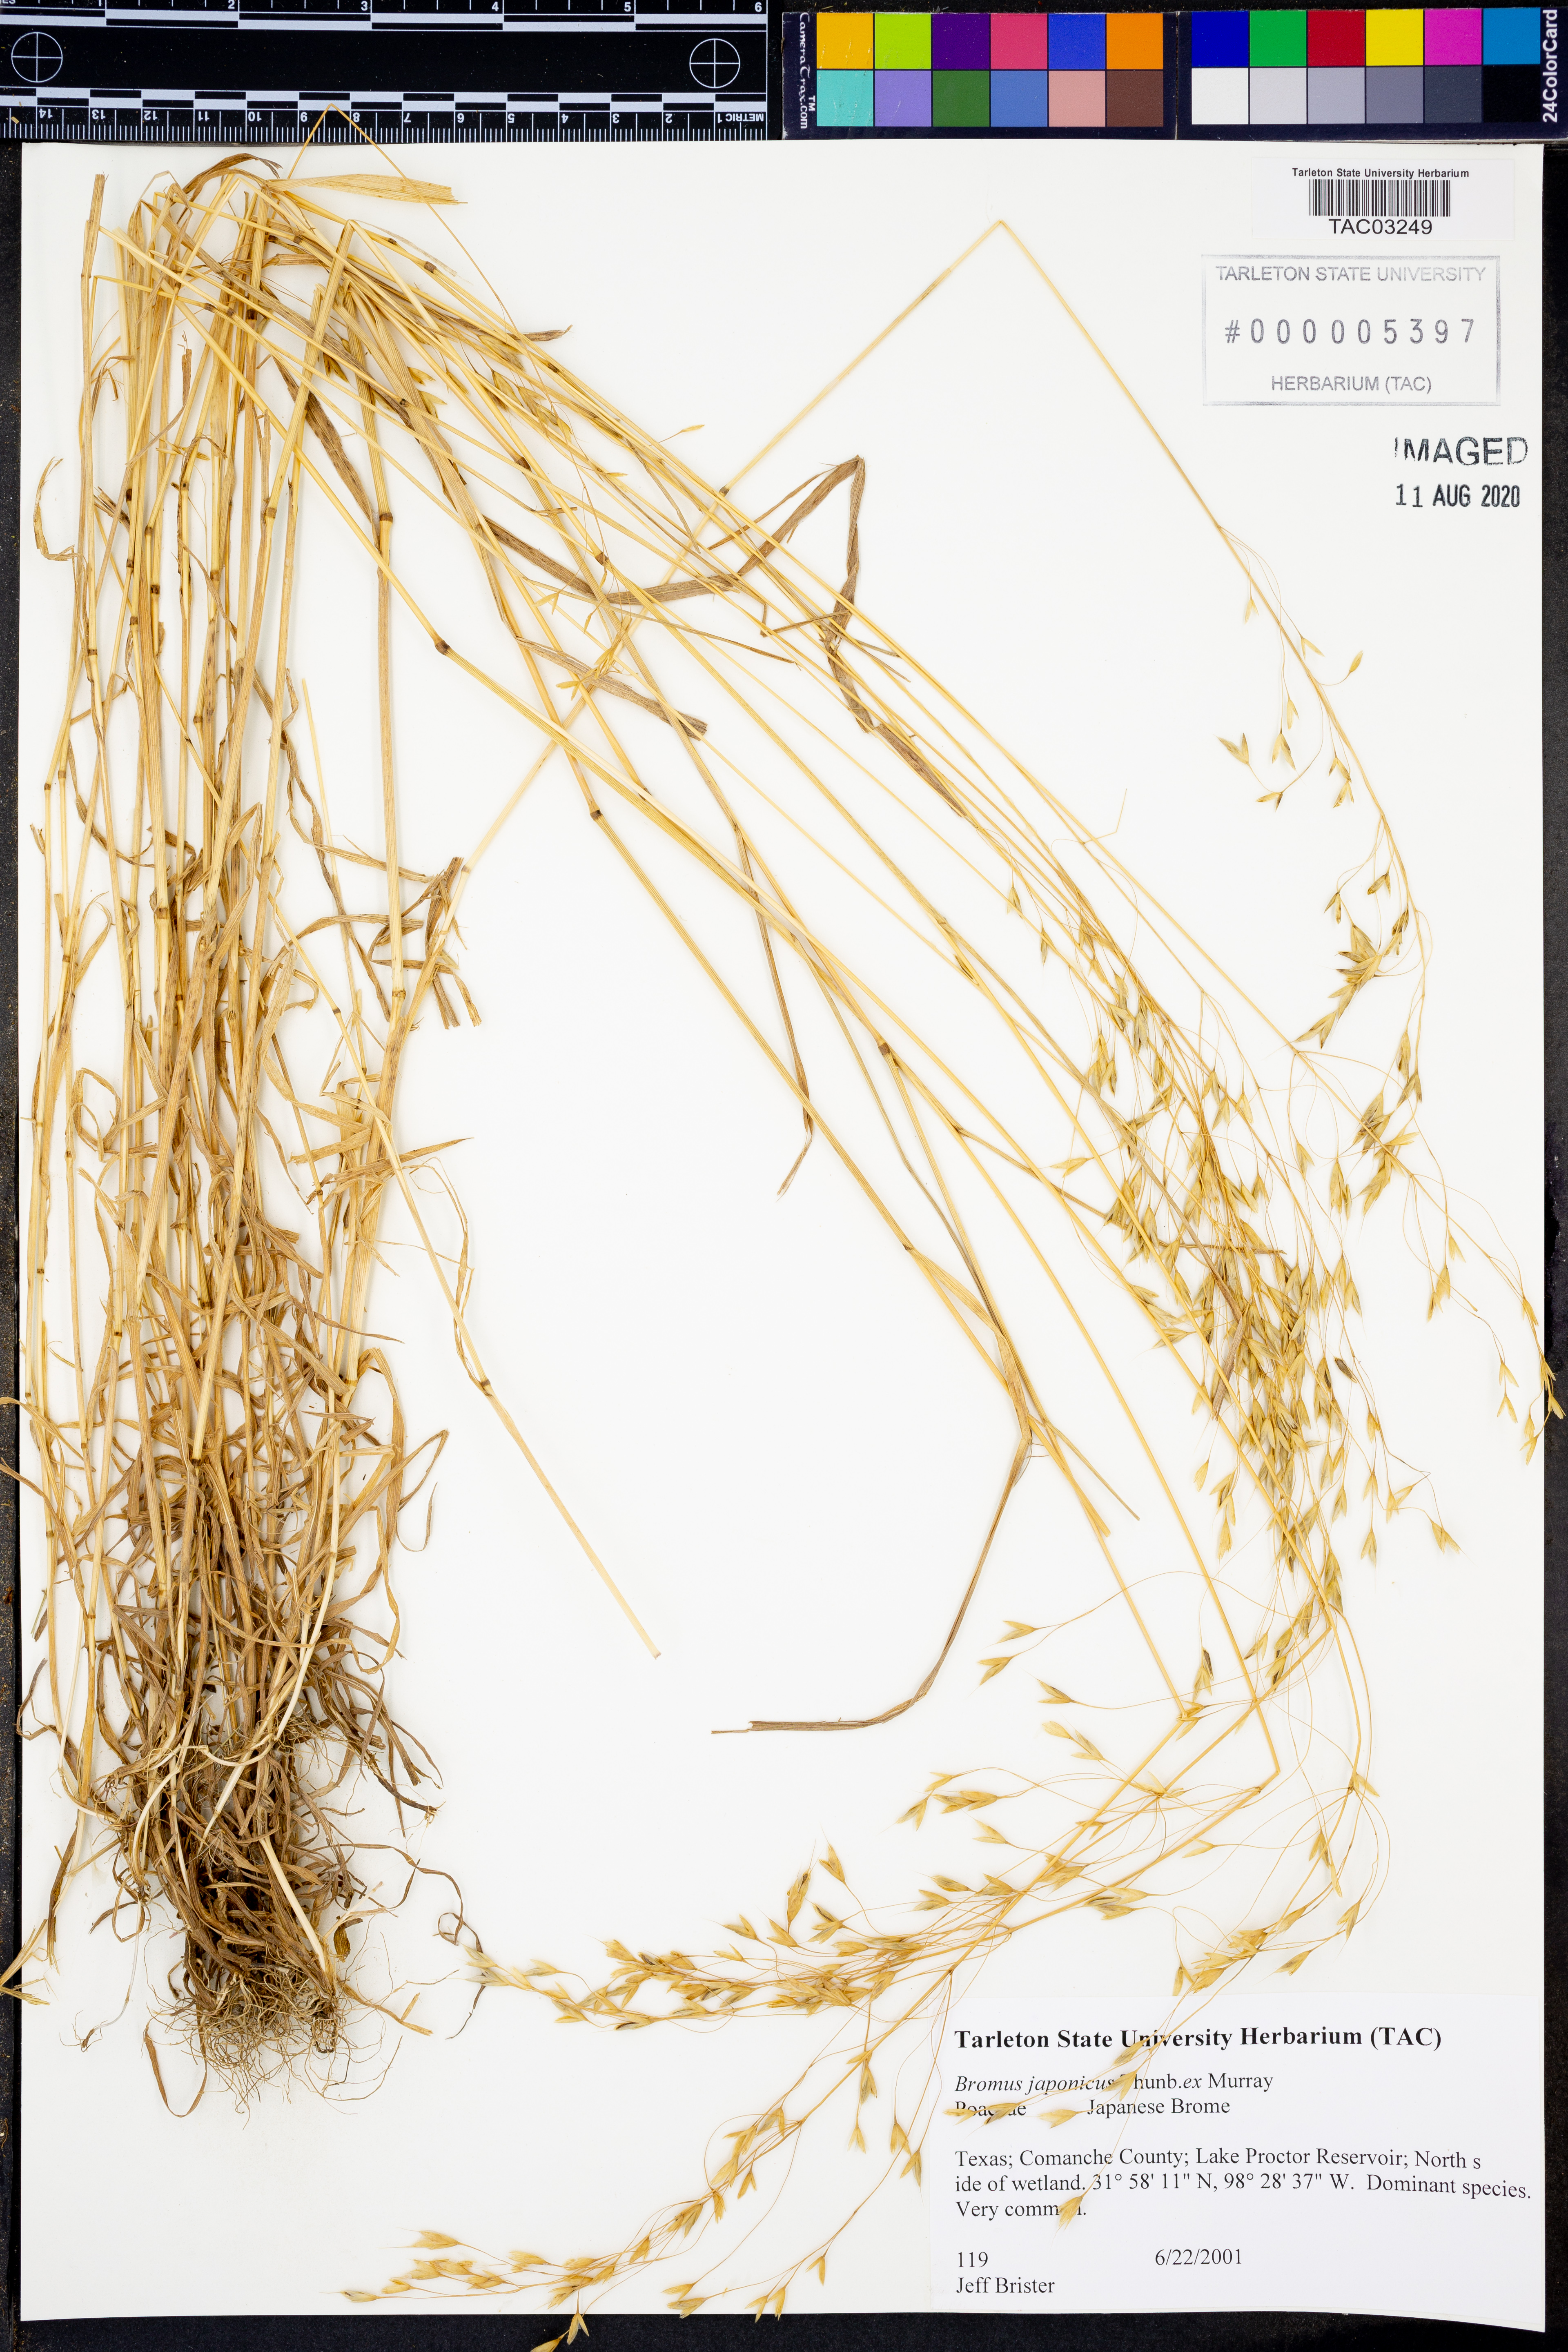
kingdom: Plantae
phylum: Tracheophyta
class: Liliopsida
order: Poales
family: Poaceae
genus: Bromus
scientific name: Bromus japonicus
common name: Japanese brome
